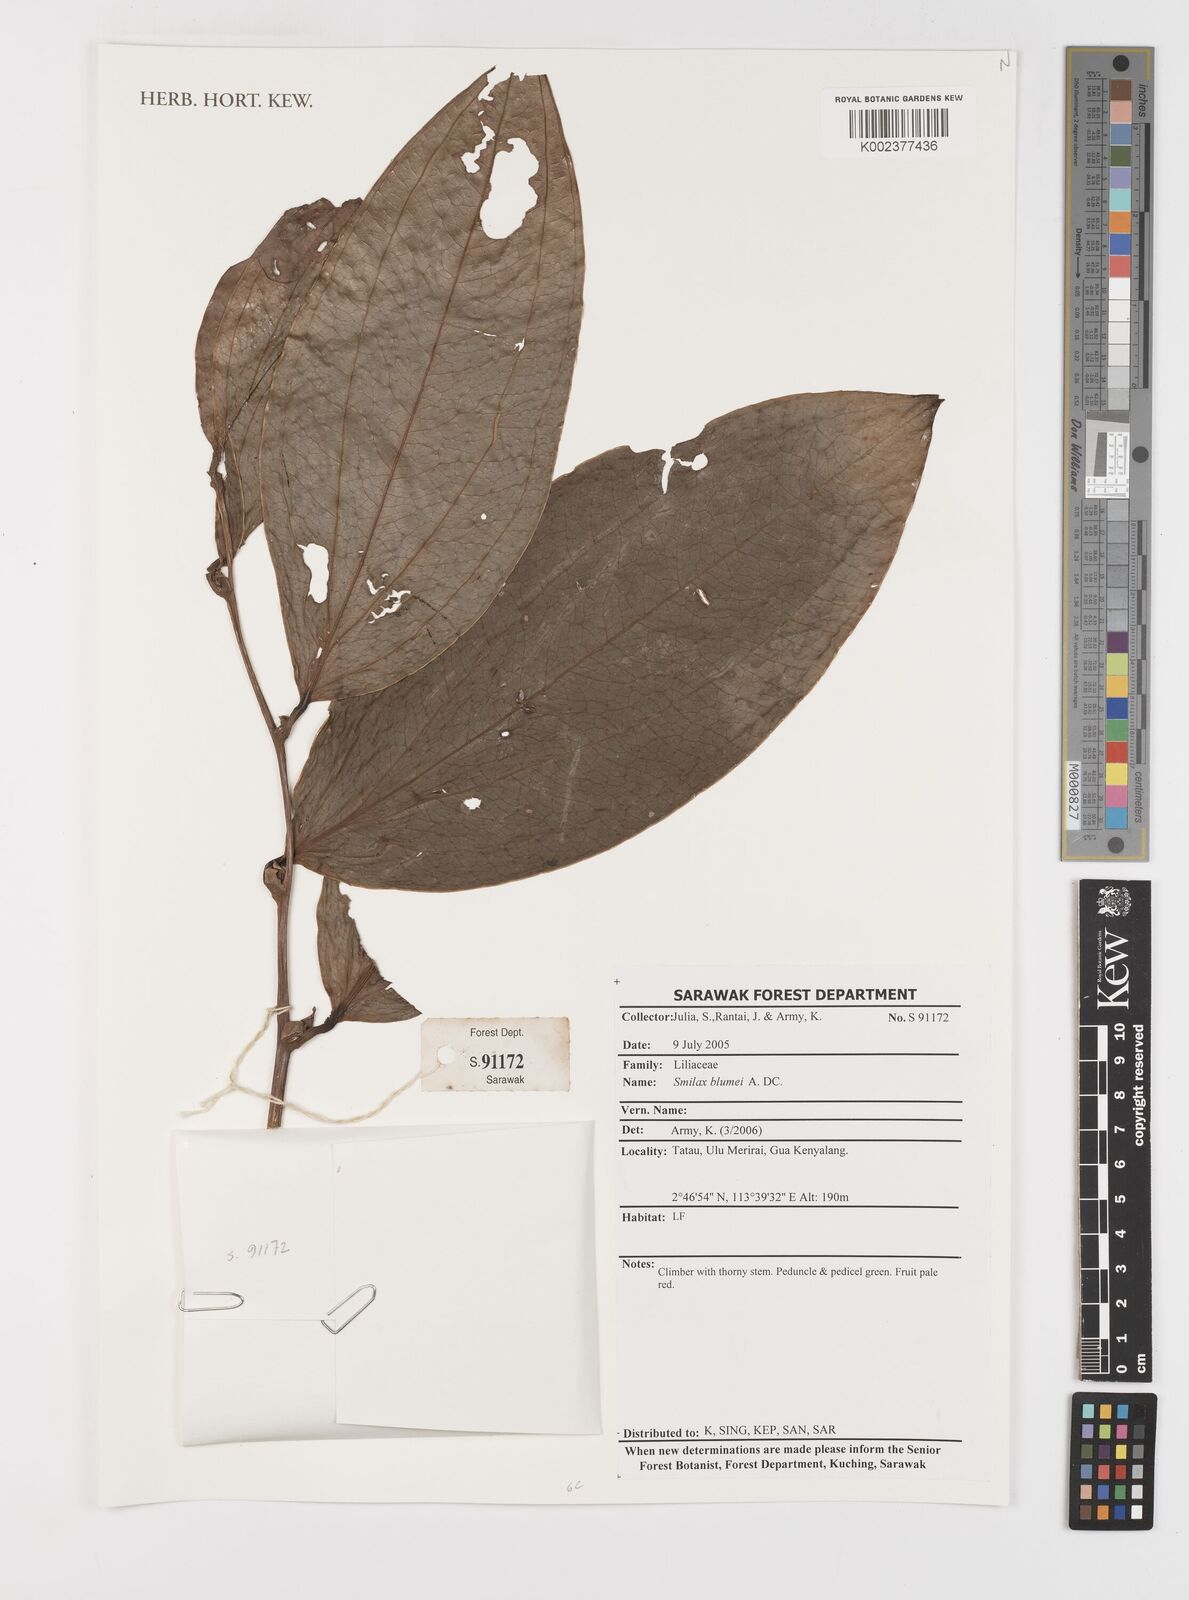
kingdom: Plantae
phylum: Tracheophyta
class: Liliopsida
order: Liliales
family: Smilacaceae
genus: Smilax
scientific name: Smilax blumei
